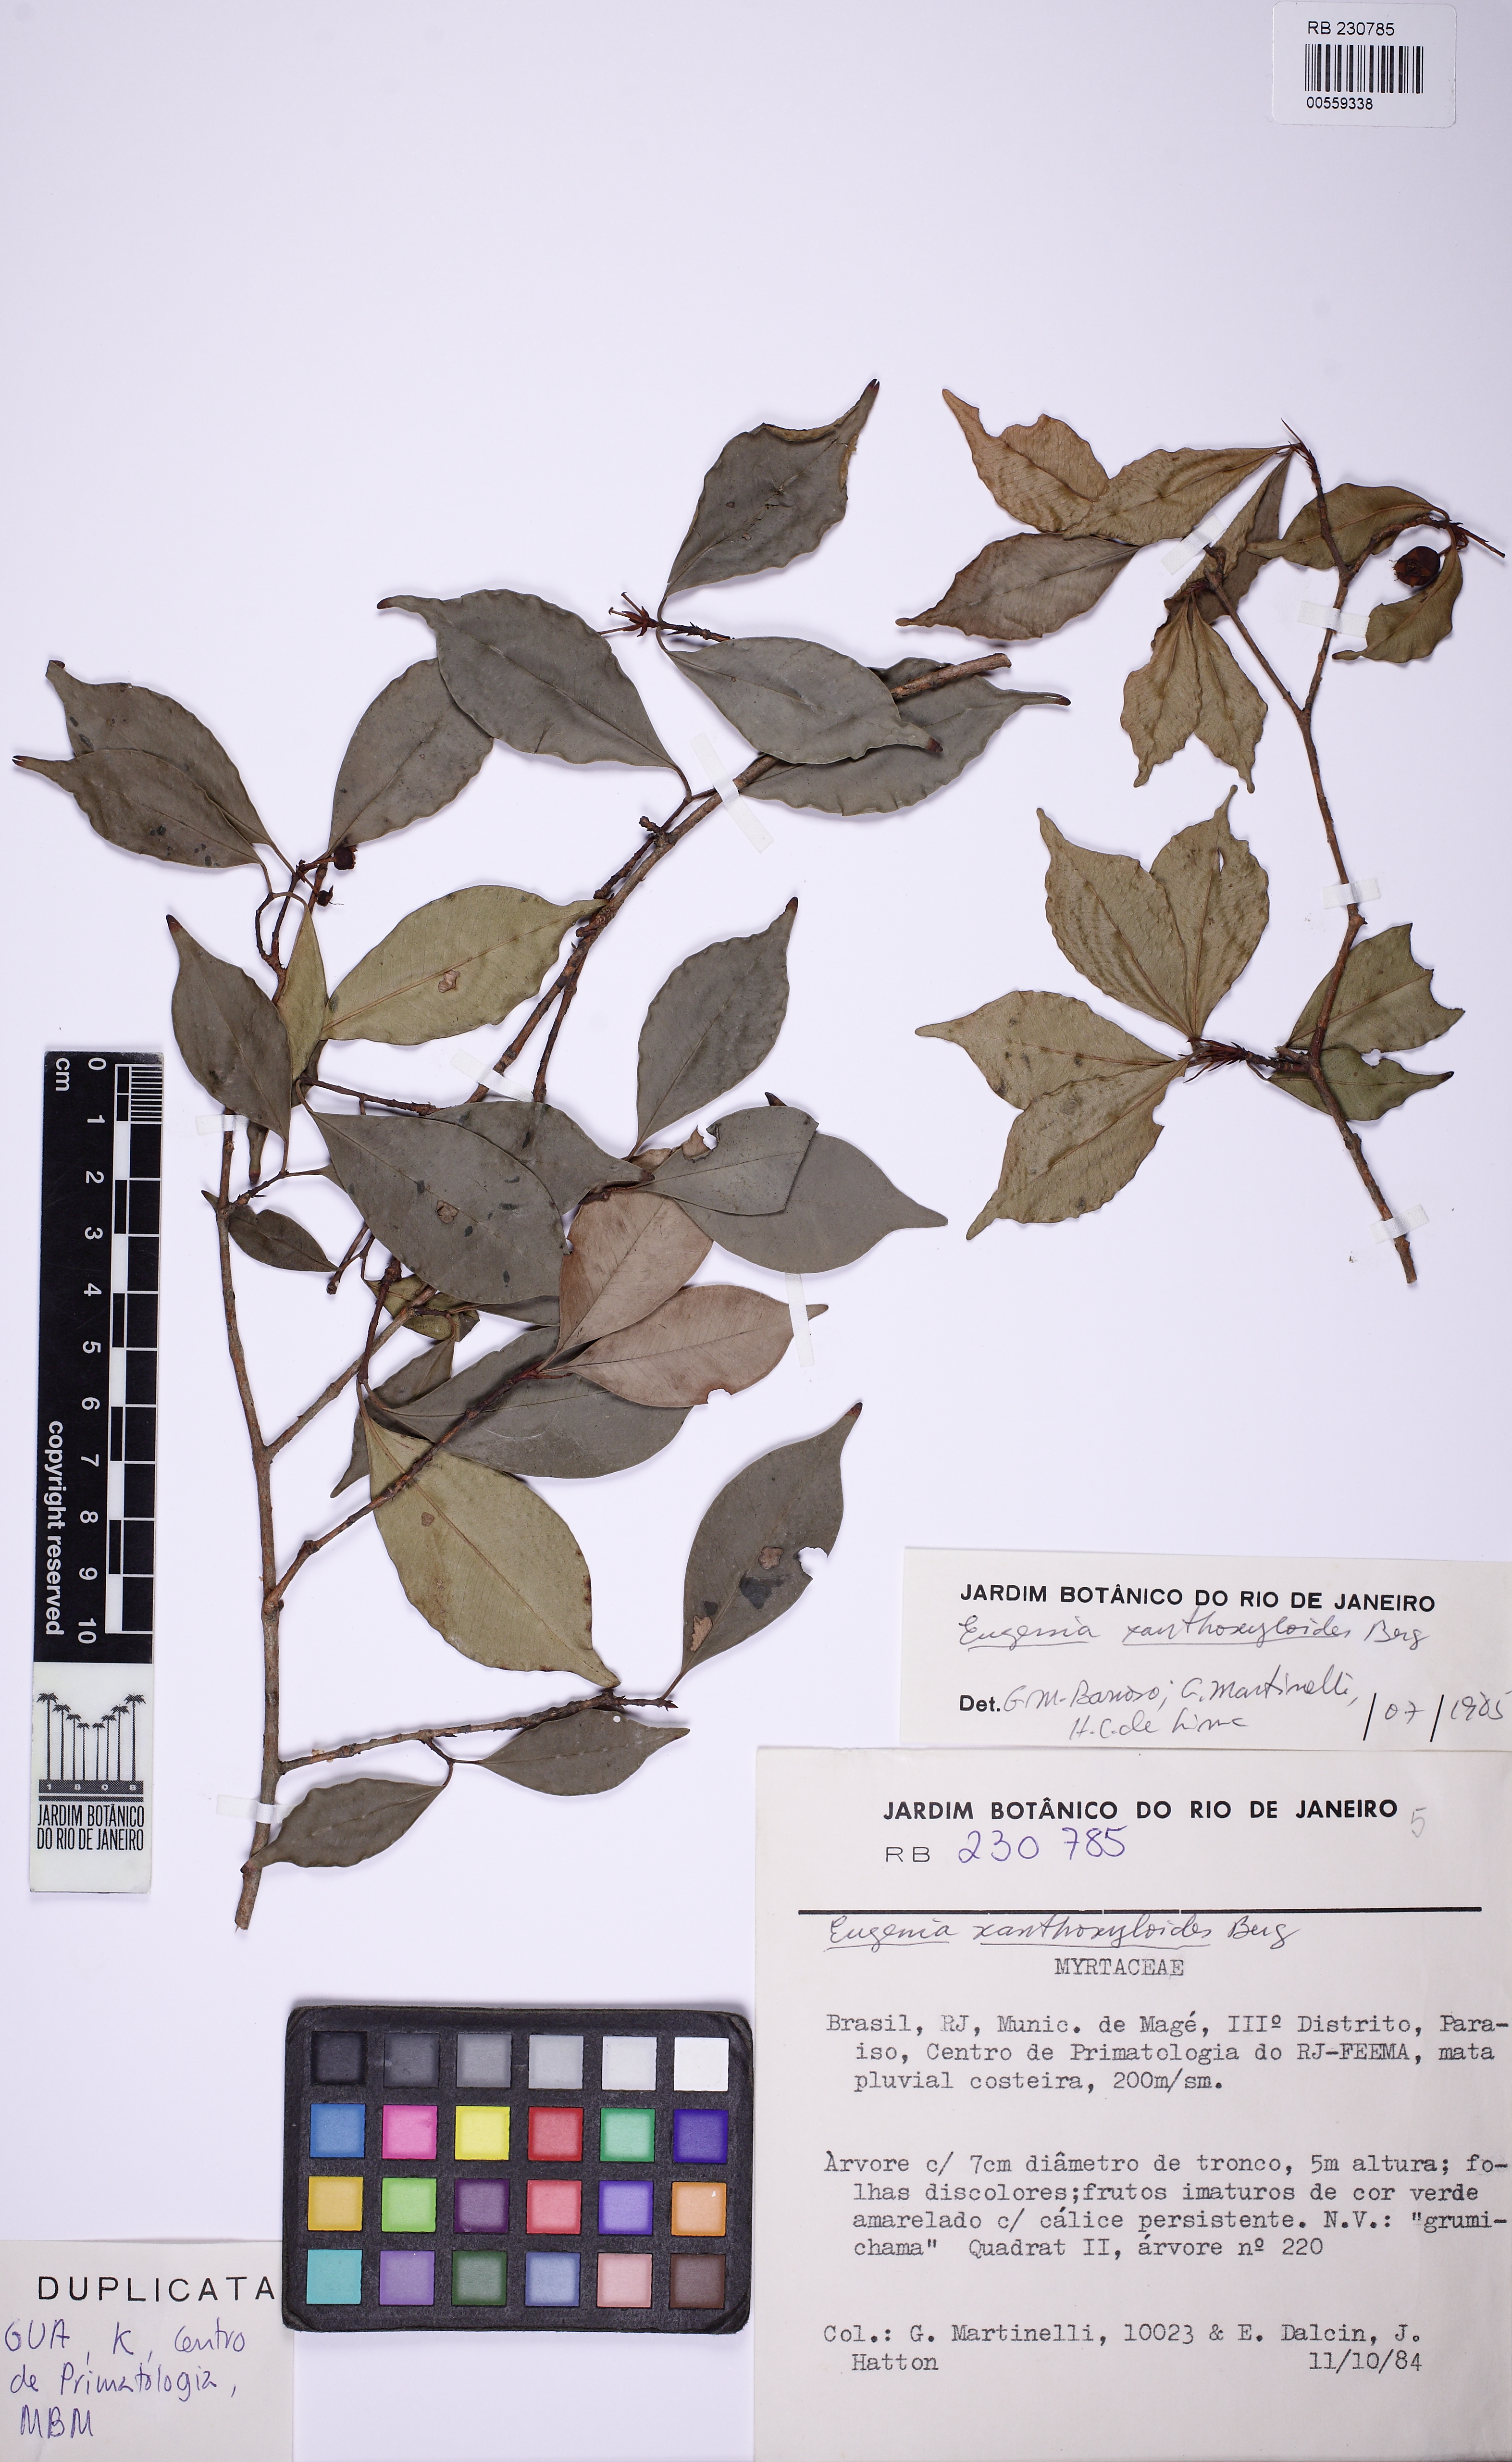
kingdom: Plantae
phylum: Tracheophyta
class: Magnoliopsida
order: Myrtales
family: Myrtaceae
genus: Eugenia
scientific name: Eugenia xanthoxyloides
